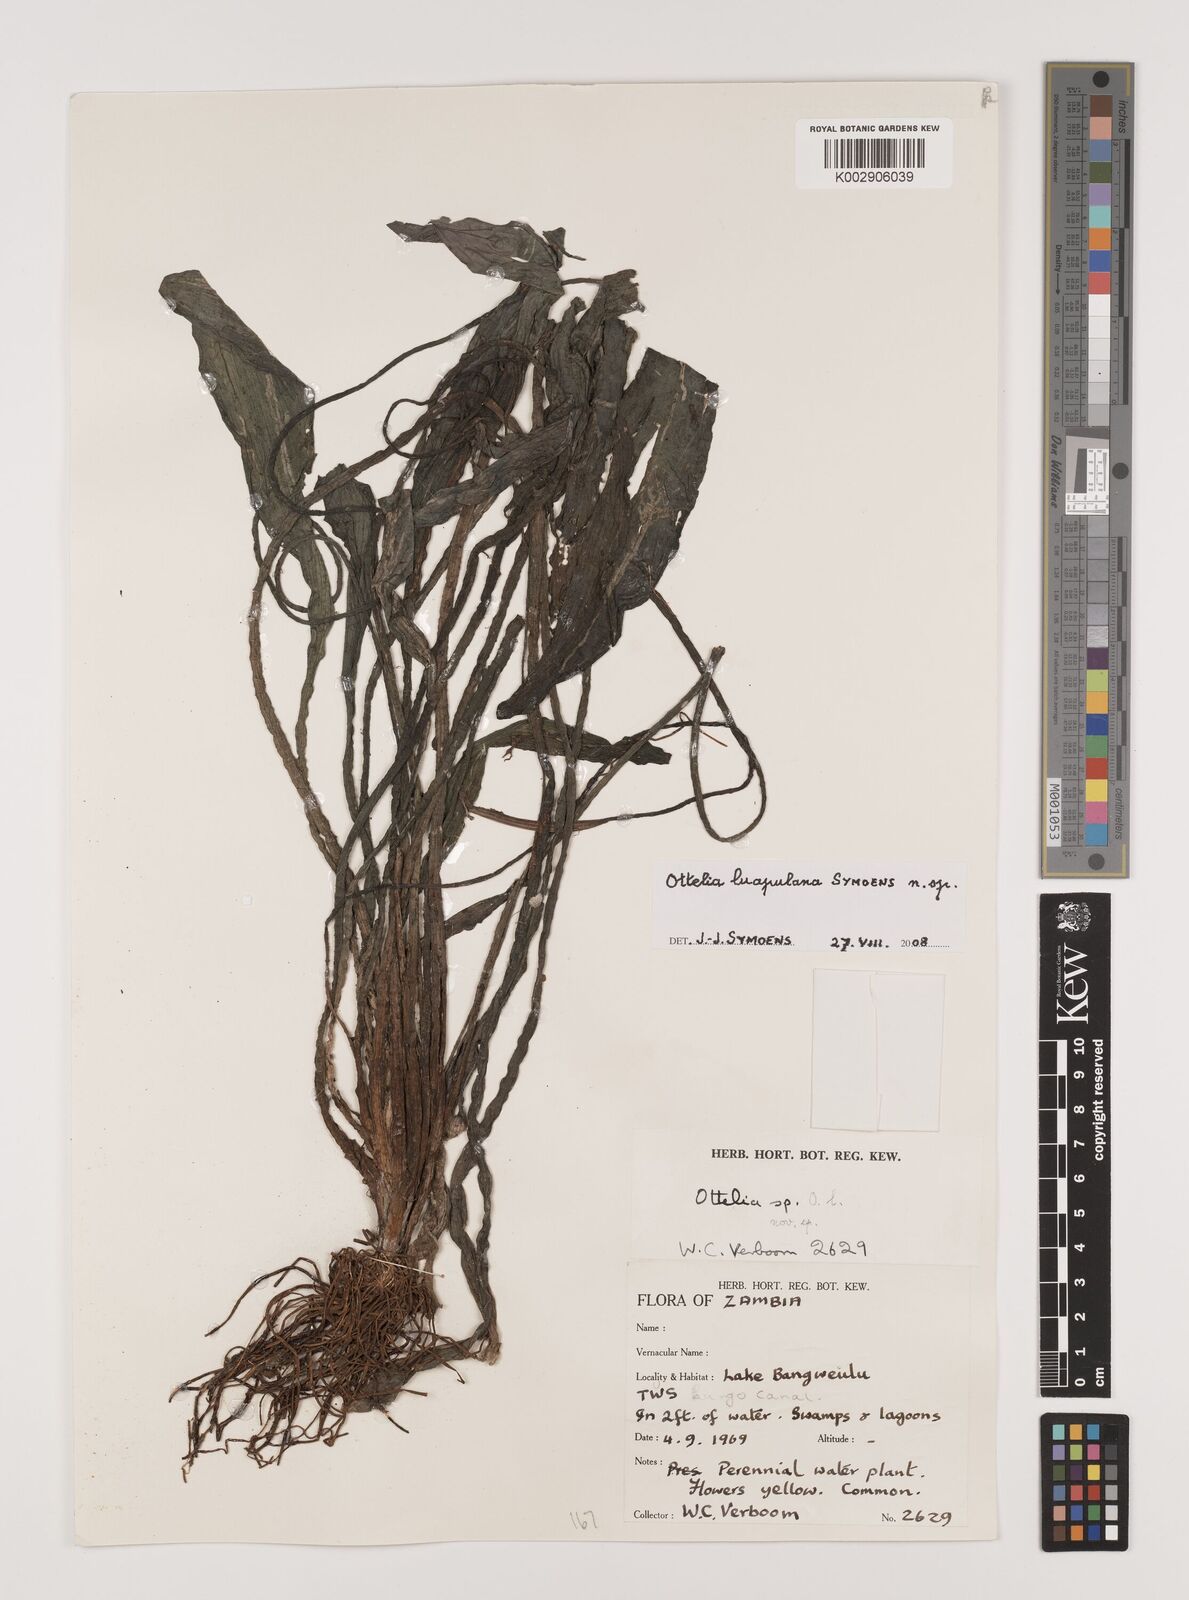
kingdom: Plantae
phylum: Tracheophyta
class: Liliopsida
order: Alismatales
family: Hydrocharitaceae
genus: Ottelia
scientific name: Ottelia obtusifolia
